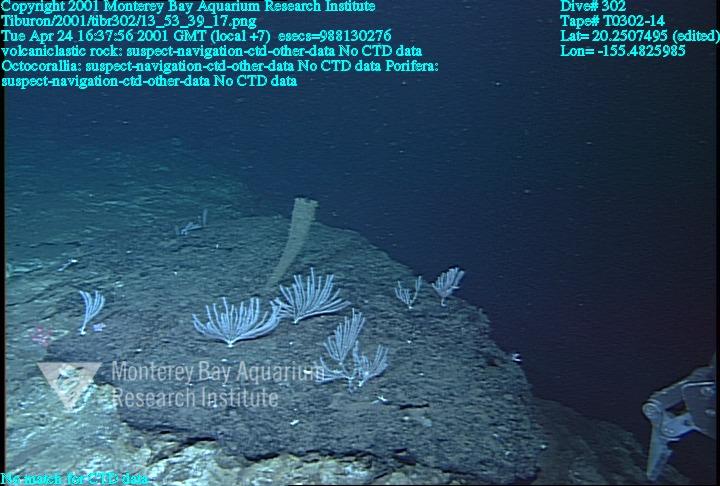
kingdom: Animalia
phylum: Porifera
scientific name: Porifera
